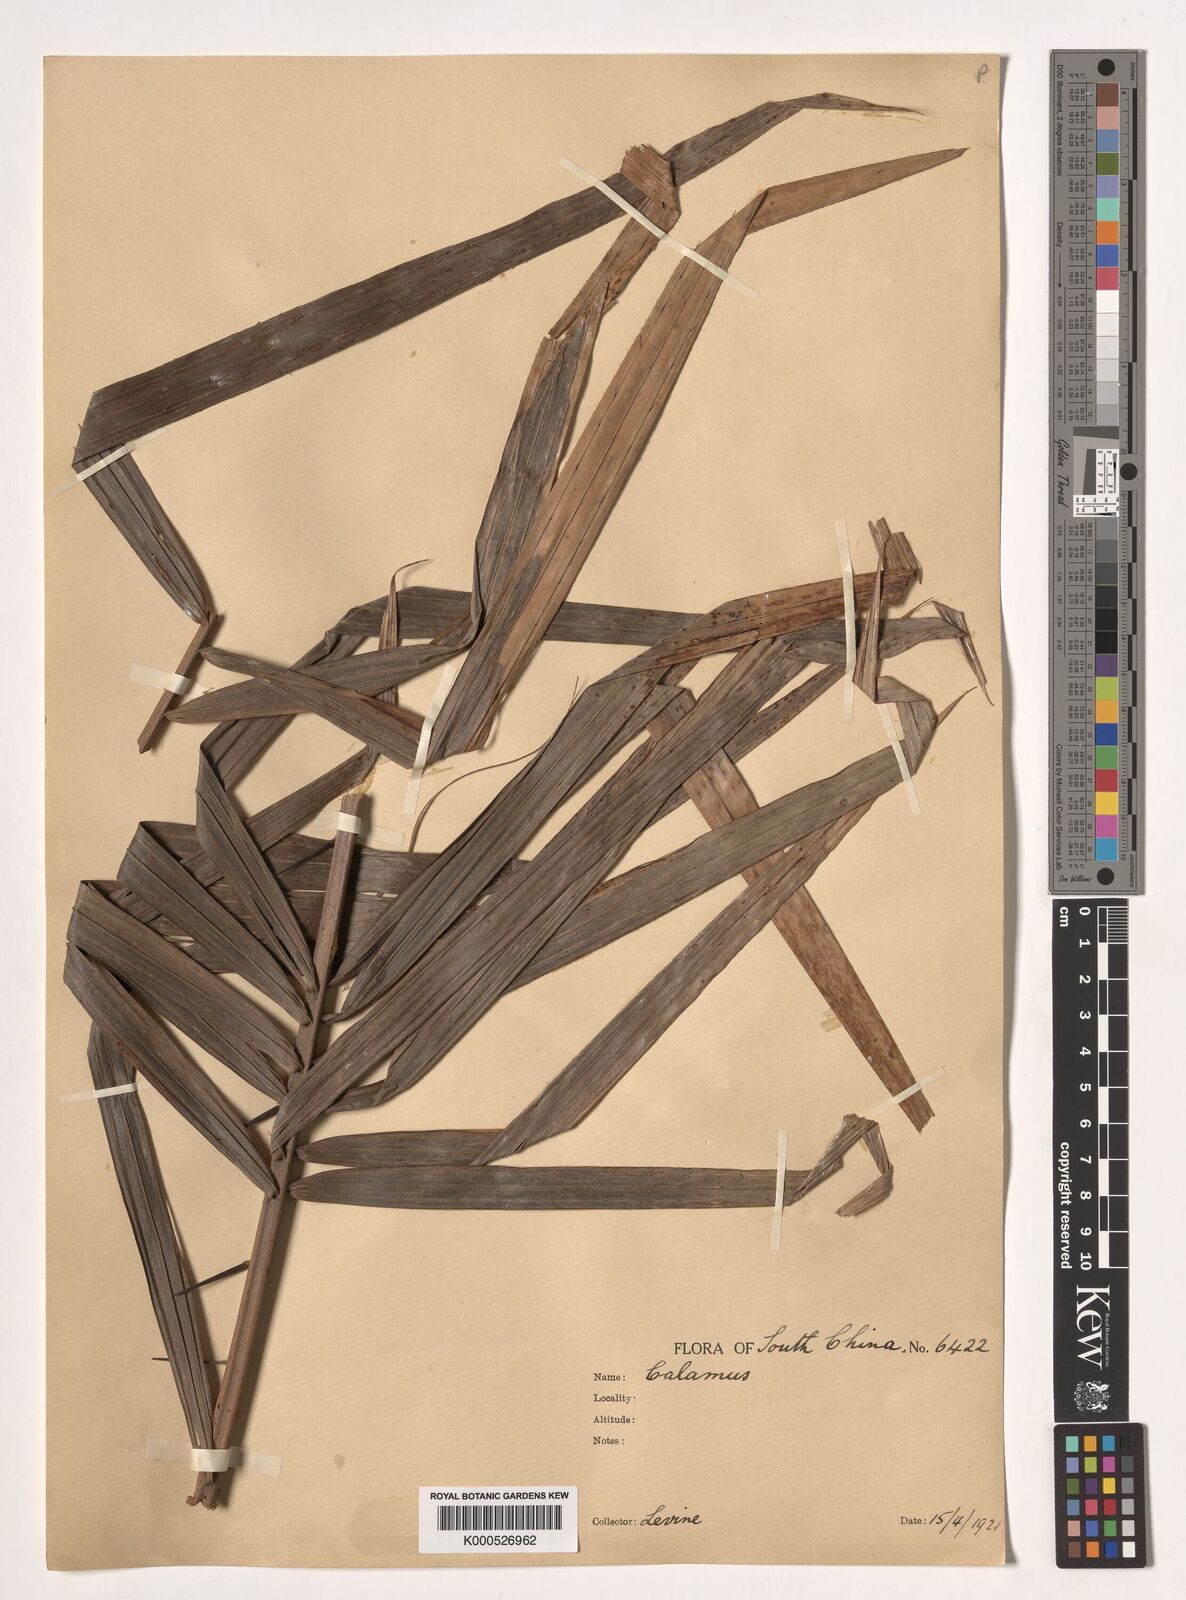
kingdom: Plantae
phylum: Tracheophyta
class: Liliopsida
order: Arecales
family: Arecaceae
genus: Calamus
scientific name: Calamus rhabdocladus
